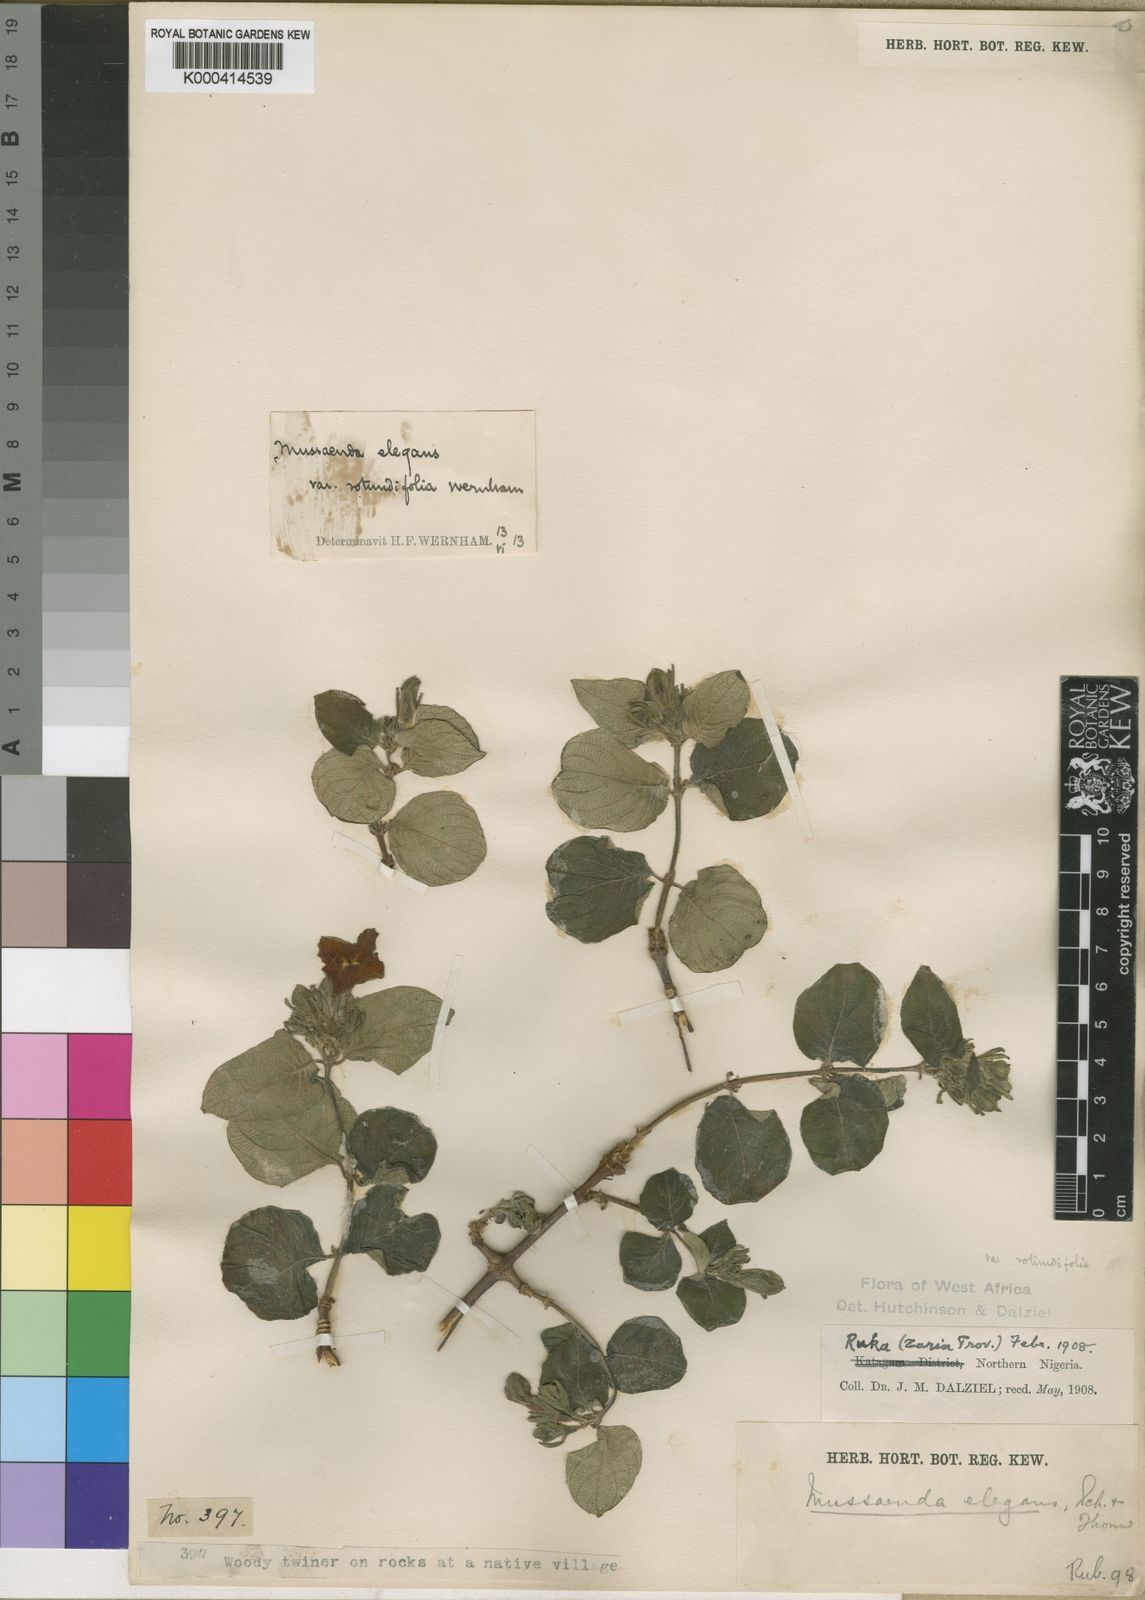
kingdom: Plantae
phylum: Tracheophyta
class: Magnoliopsida
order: Gentianales
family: Rubiaceae
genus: Mussaenda
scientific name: Mussaenda elegans
